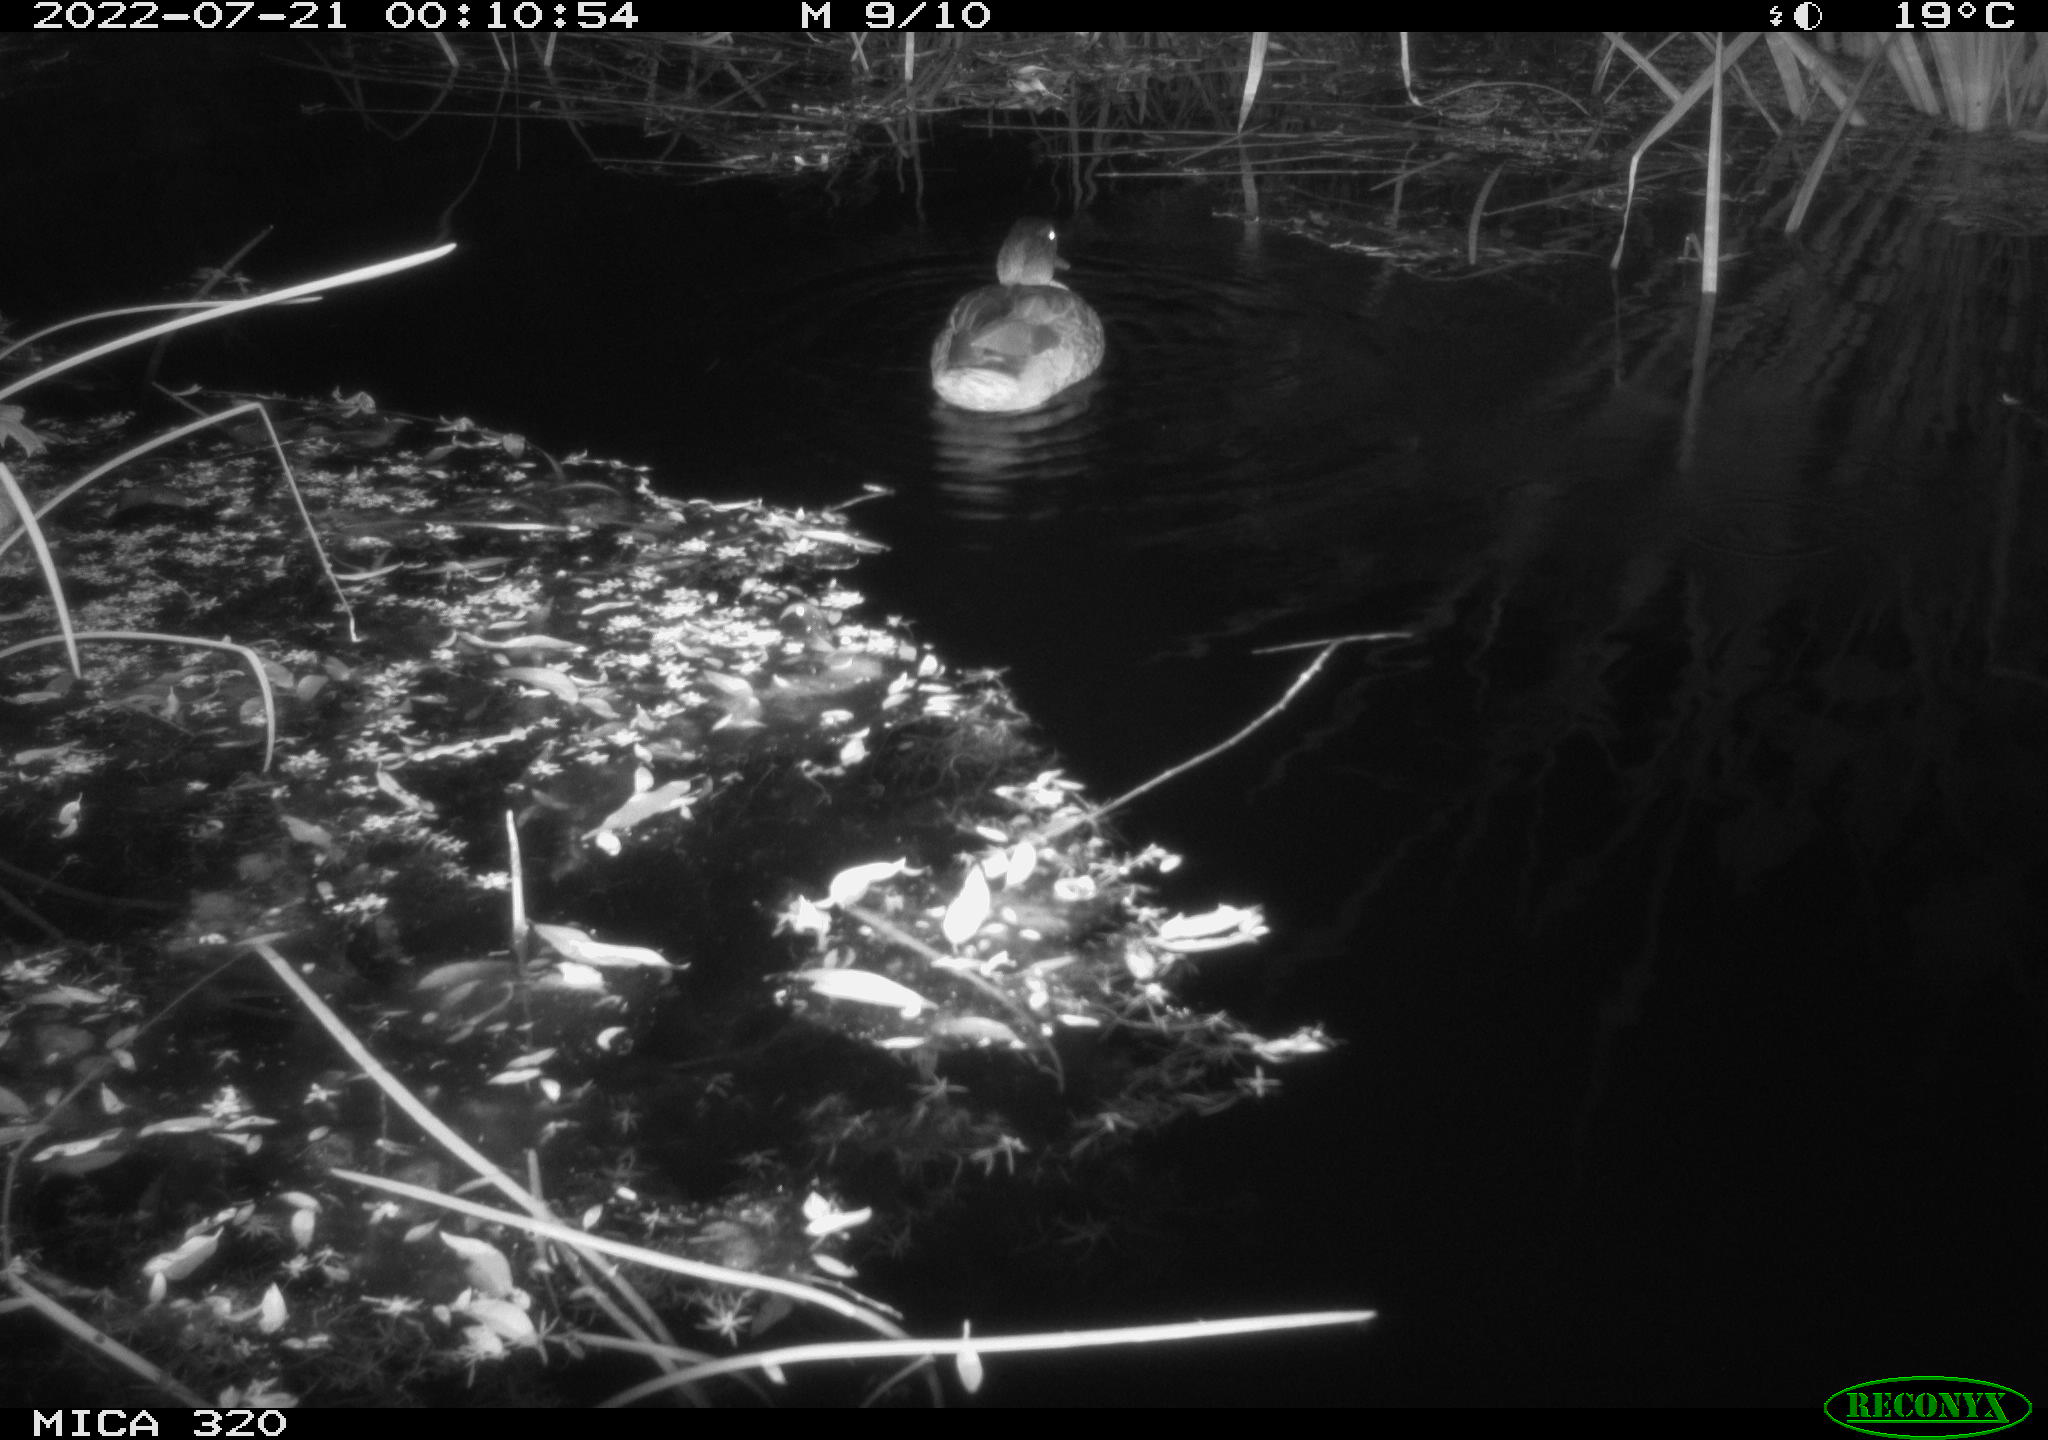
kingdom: Animalia
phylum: Chordata
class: Aves
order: Anseriformes
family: Anatidae
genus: Anas
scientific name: Anas platyrhynchos
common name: Mallard
